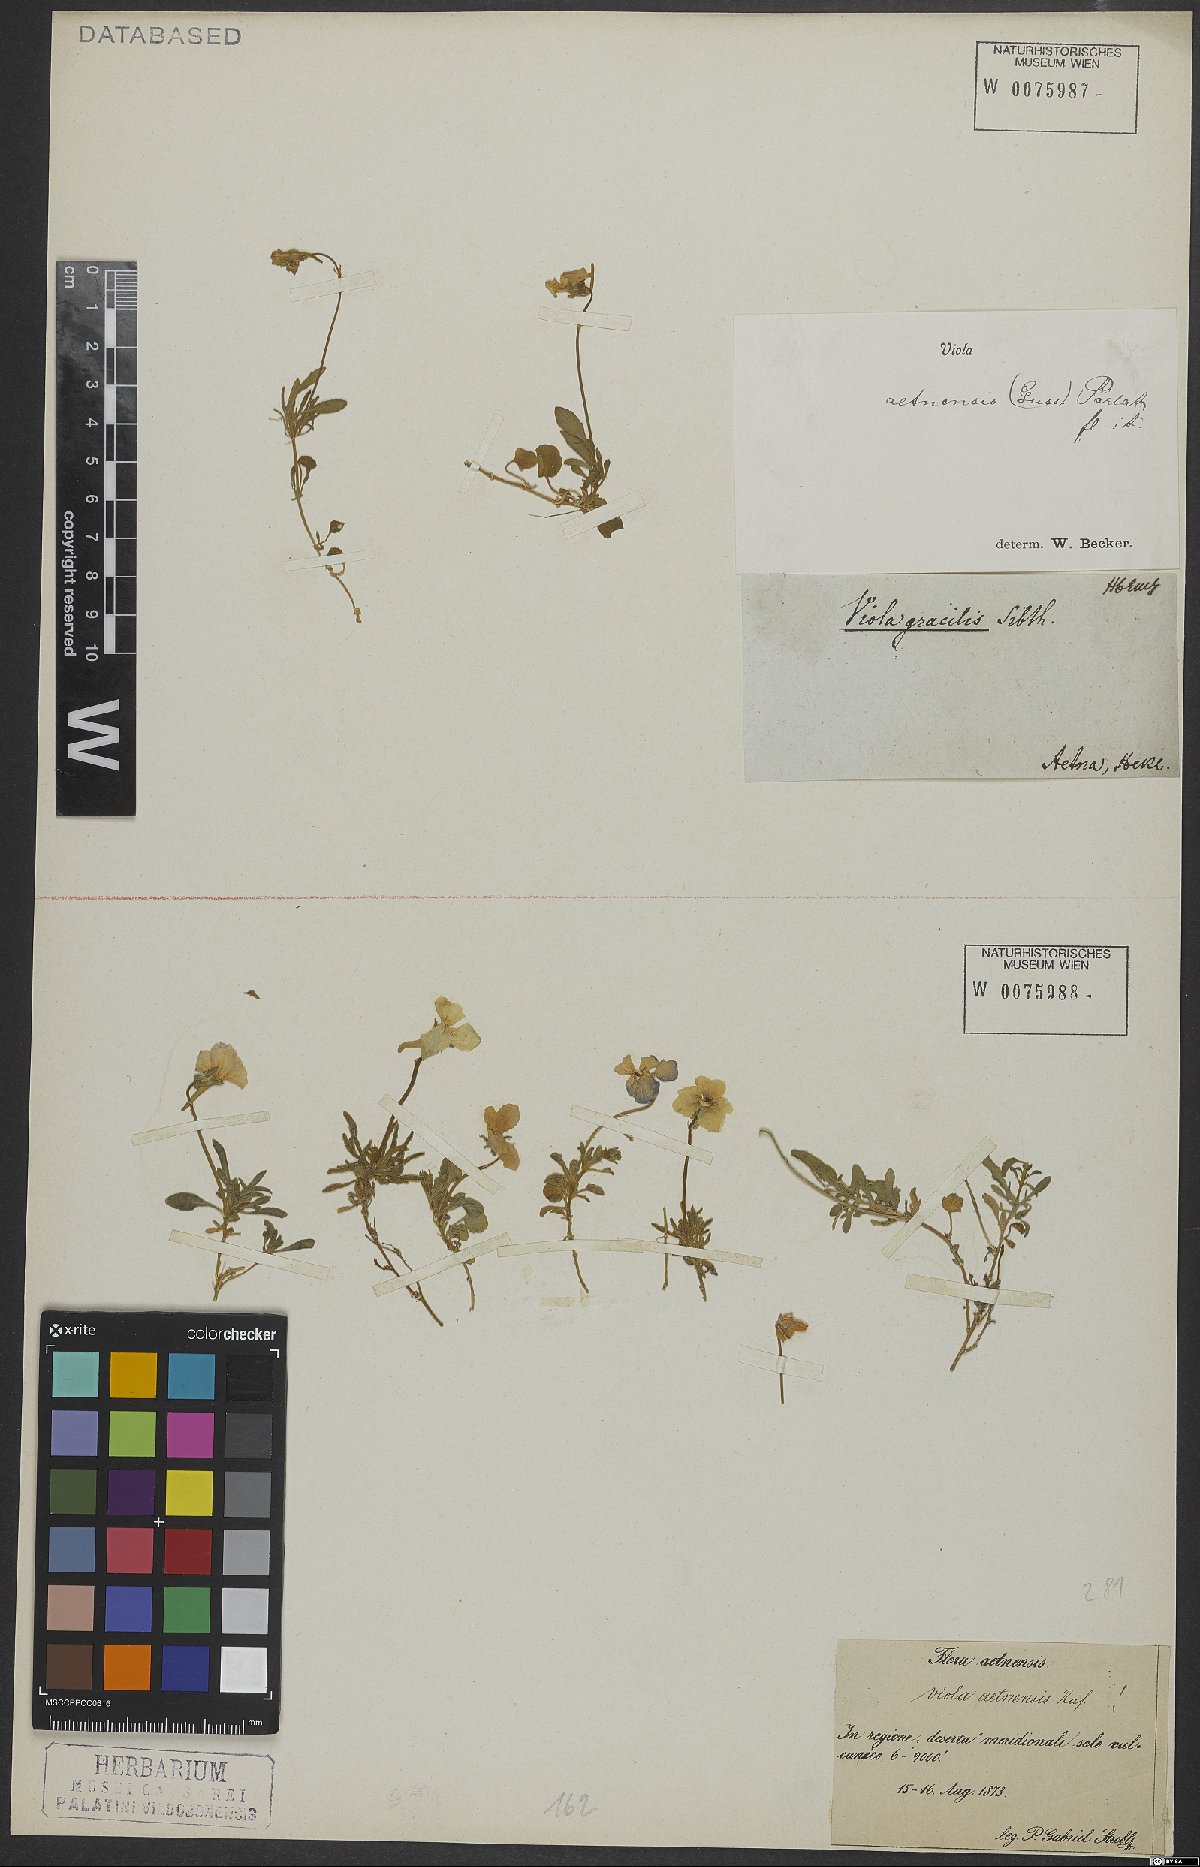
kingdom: Plantae
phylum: Tracheophyta
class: Magnoliopsida
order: Malpighiales
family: Violaceae
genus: Viola
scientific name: Viola aethnensis
